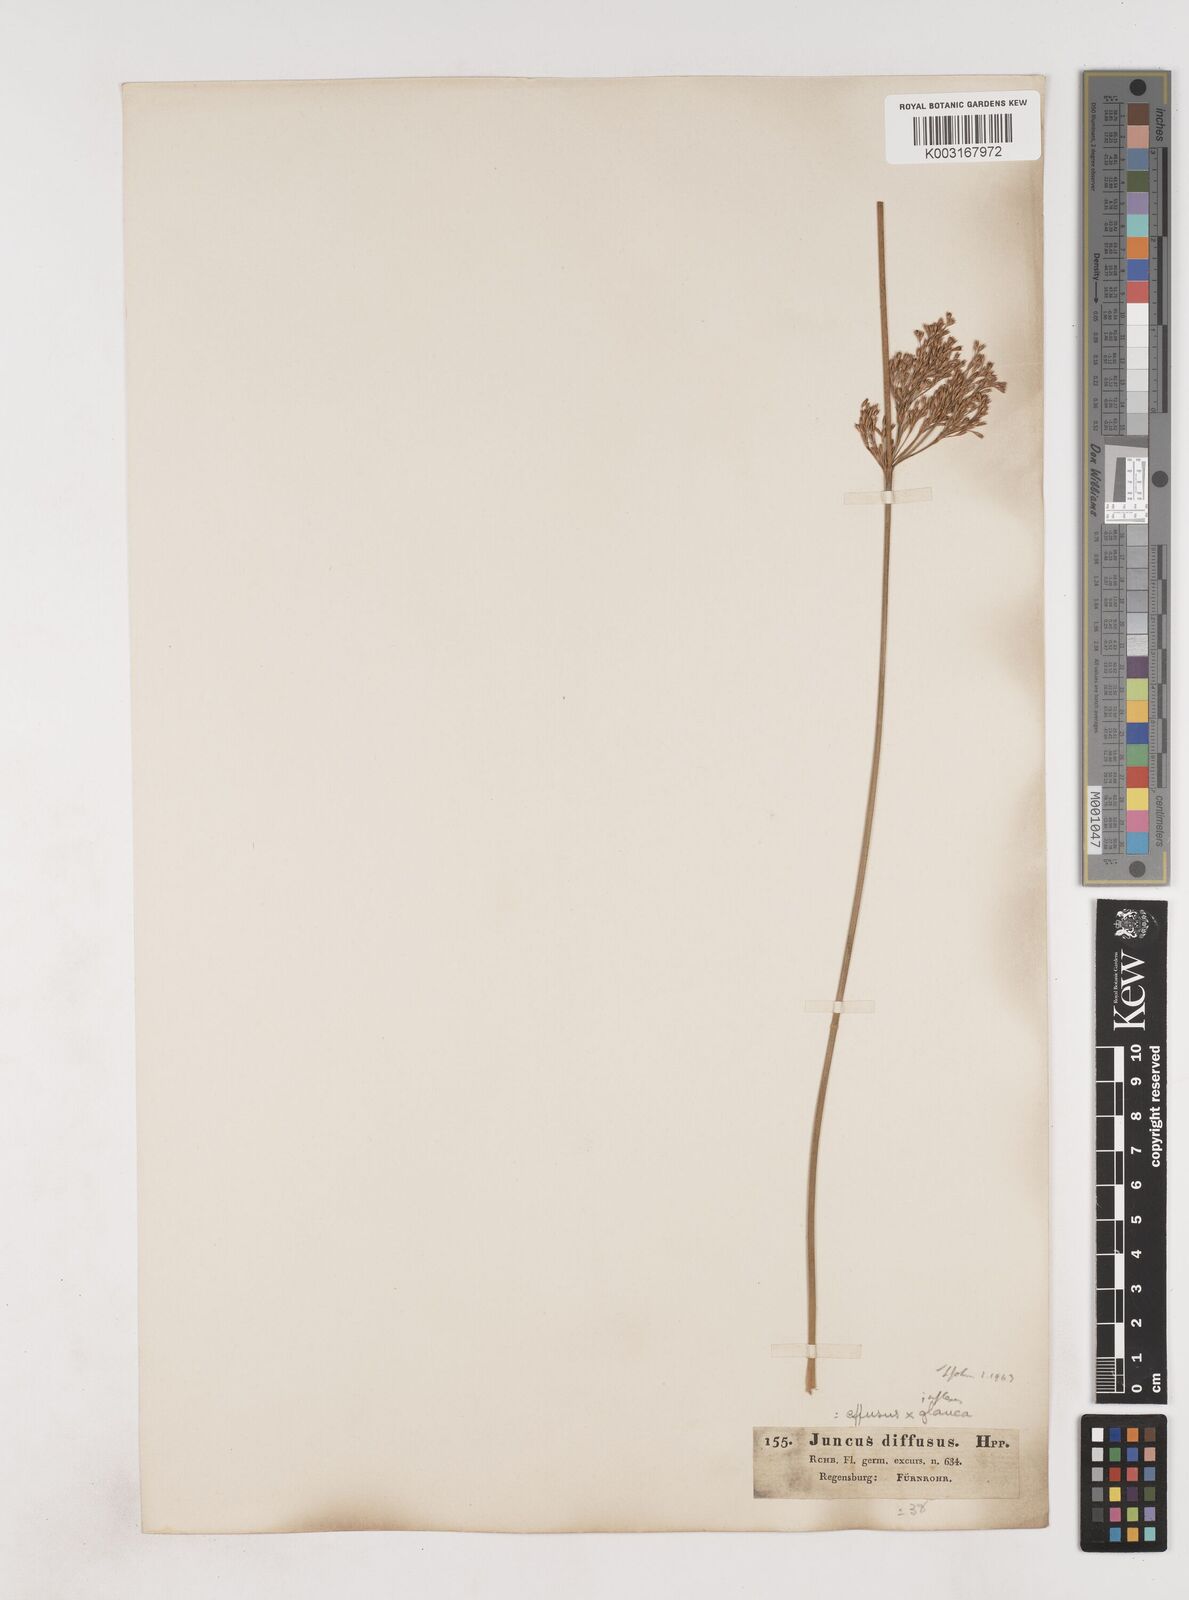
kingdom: Plantae
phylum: Tracheophyta
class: Liliopsida
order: Poales
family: Juncaceae
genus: Juncus
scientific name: Juncus effusus
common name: Soft rush
